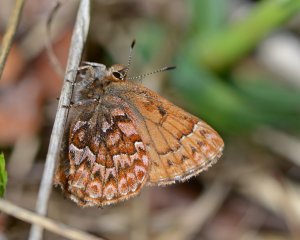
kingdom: Animalia
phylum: Arthropoda
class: Insecta
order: Lepidoptera
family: Lycaenidae
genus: Incisalia
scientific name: Incisalia eryphon
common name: Western Pine Elfin
